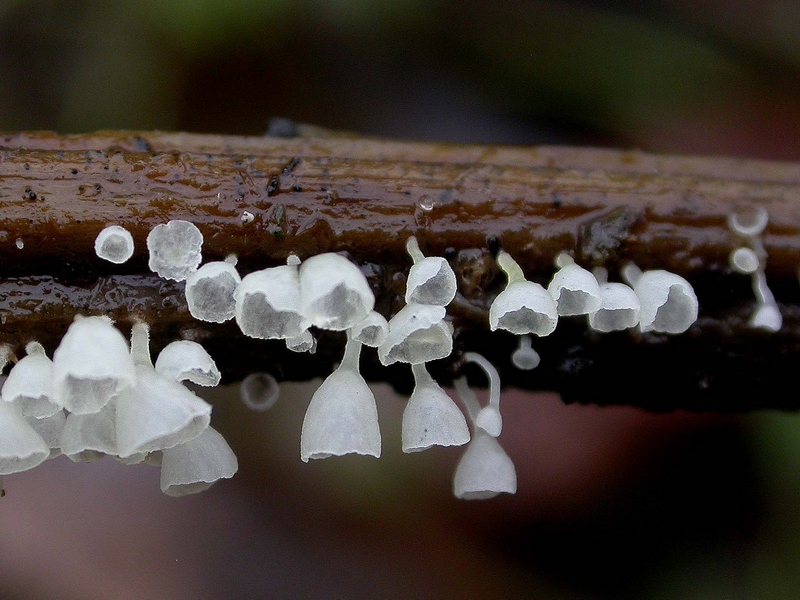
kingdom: Fungi
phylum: Basidiomycota
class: Agaricomycetes
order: Agaricales
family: Marasmiaceae
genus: Calyptella
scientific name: Calyptella capula
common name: hvidlig nældehue
